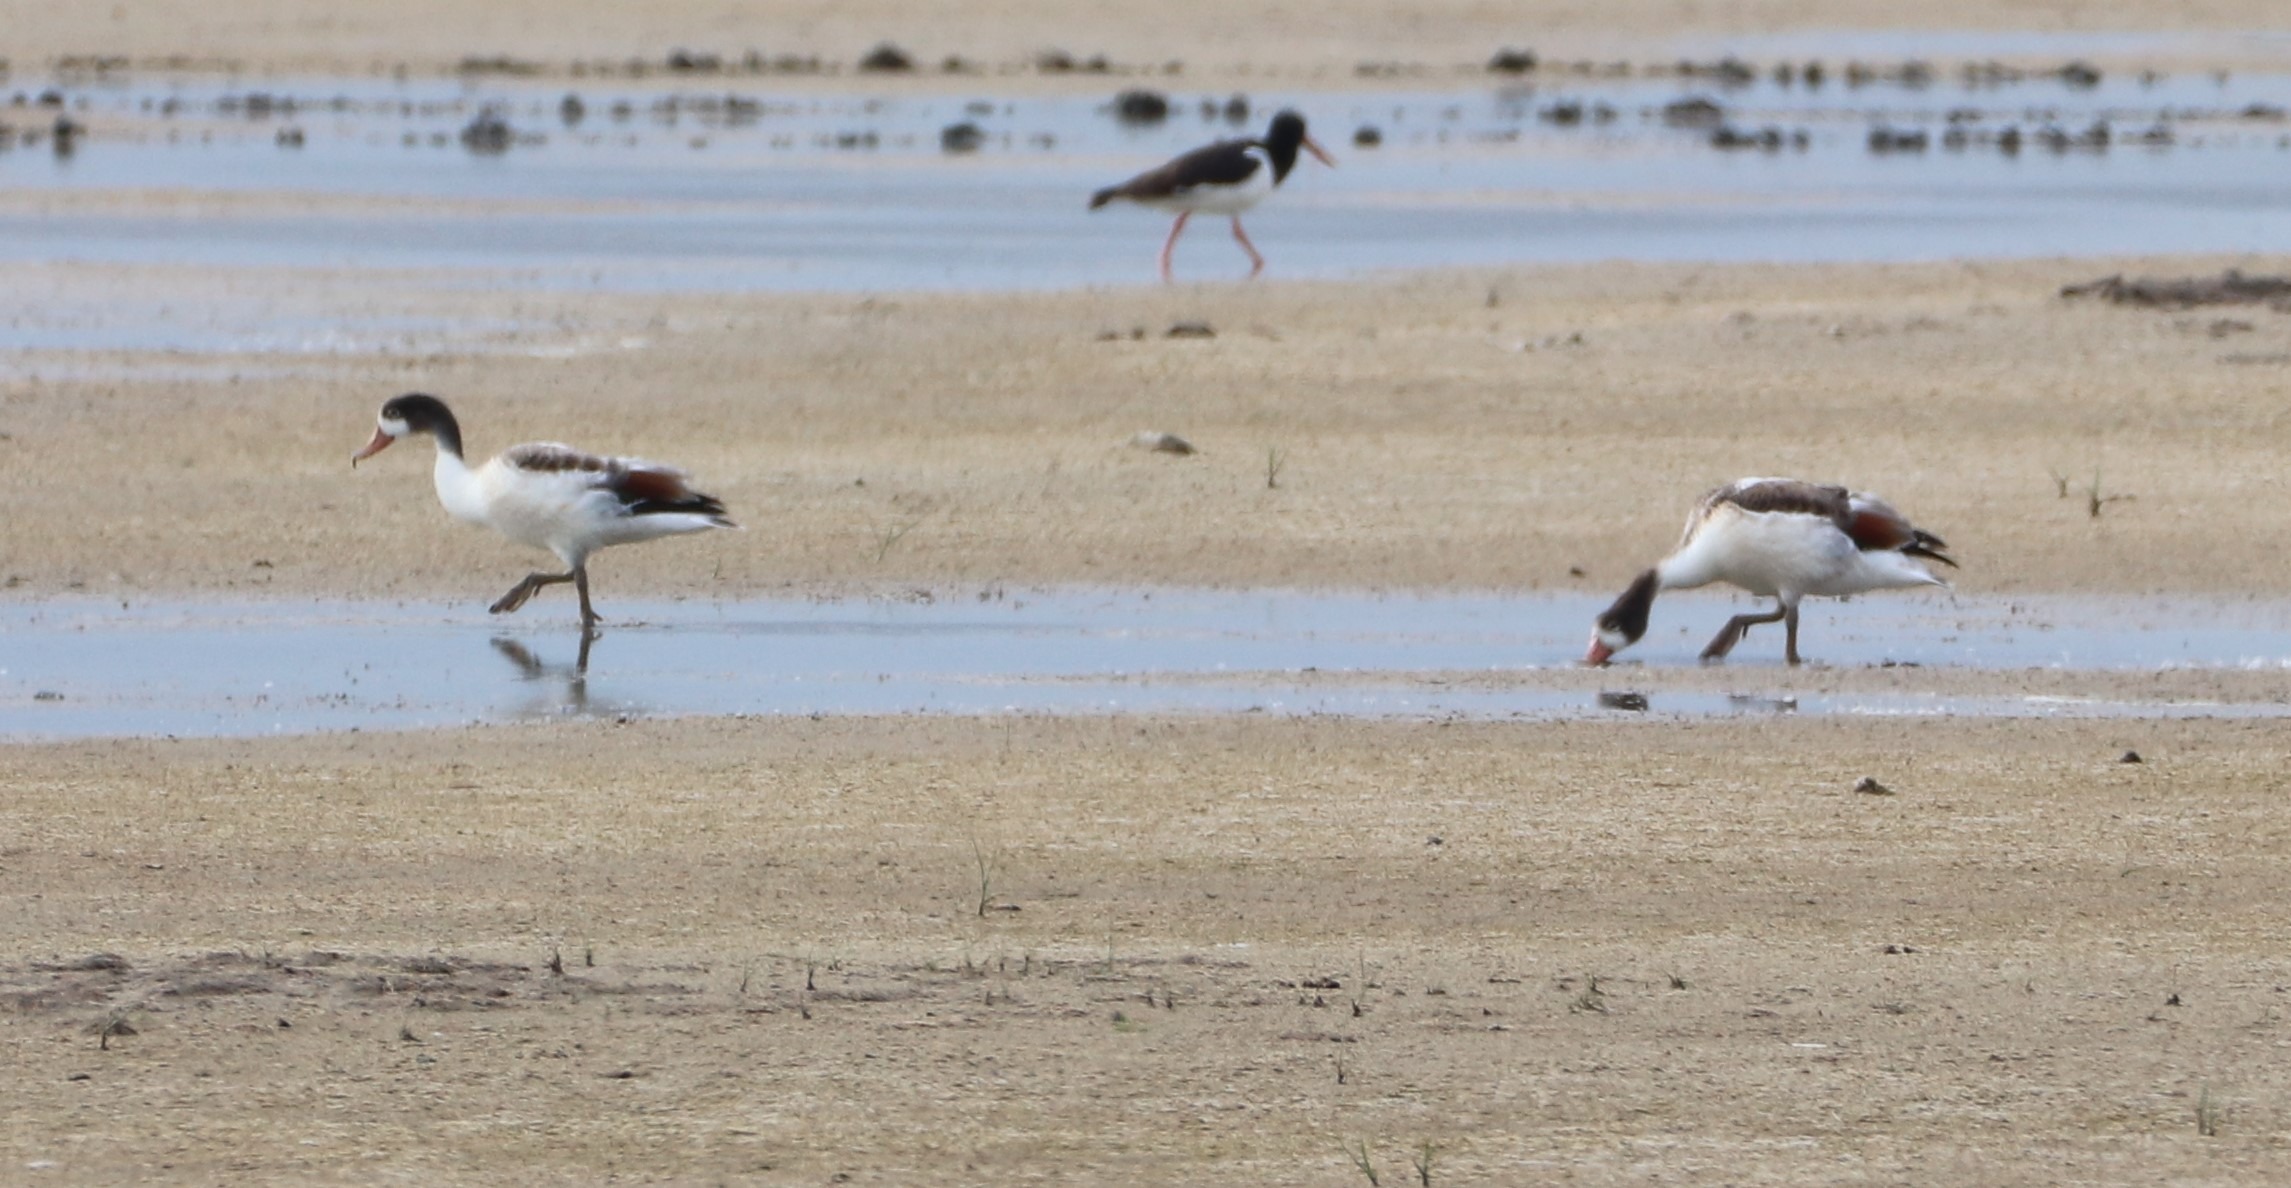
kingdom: Animalia
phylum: Chordata
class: Aves
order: Anseriformes
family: Anatidae
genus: Tadorna
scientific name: Tadorna tadorna
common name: Gravand
